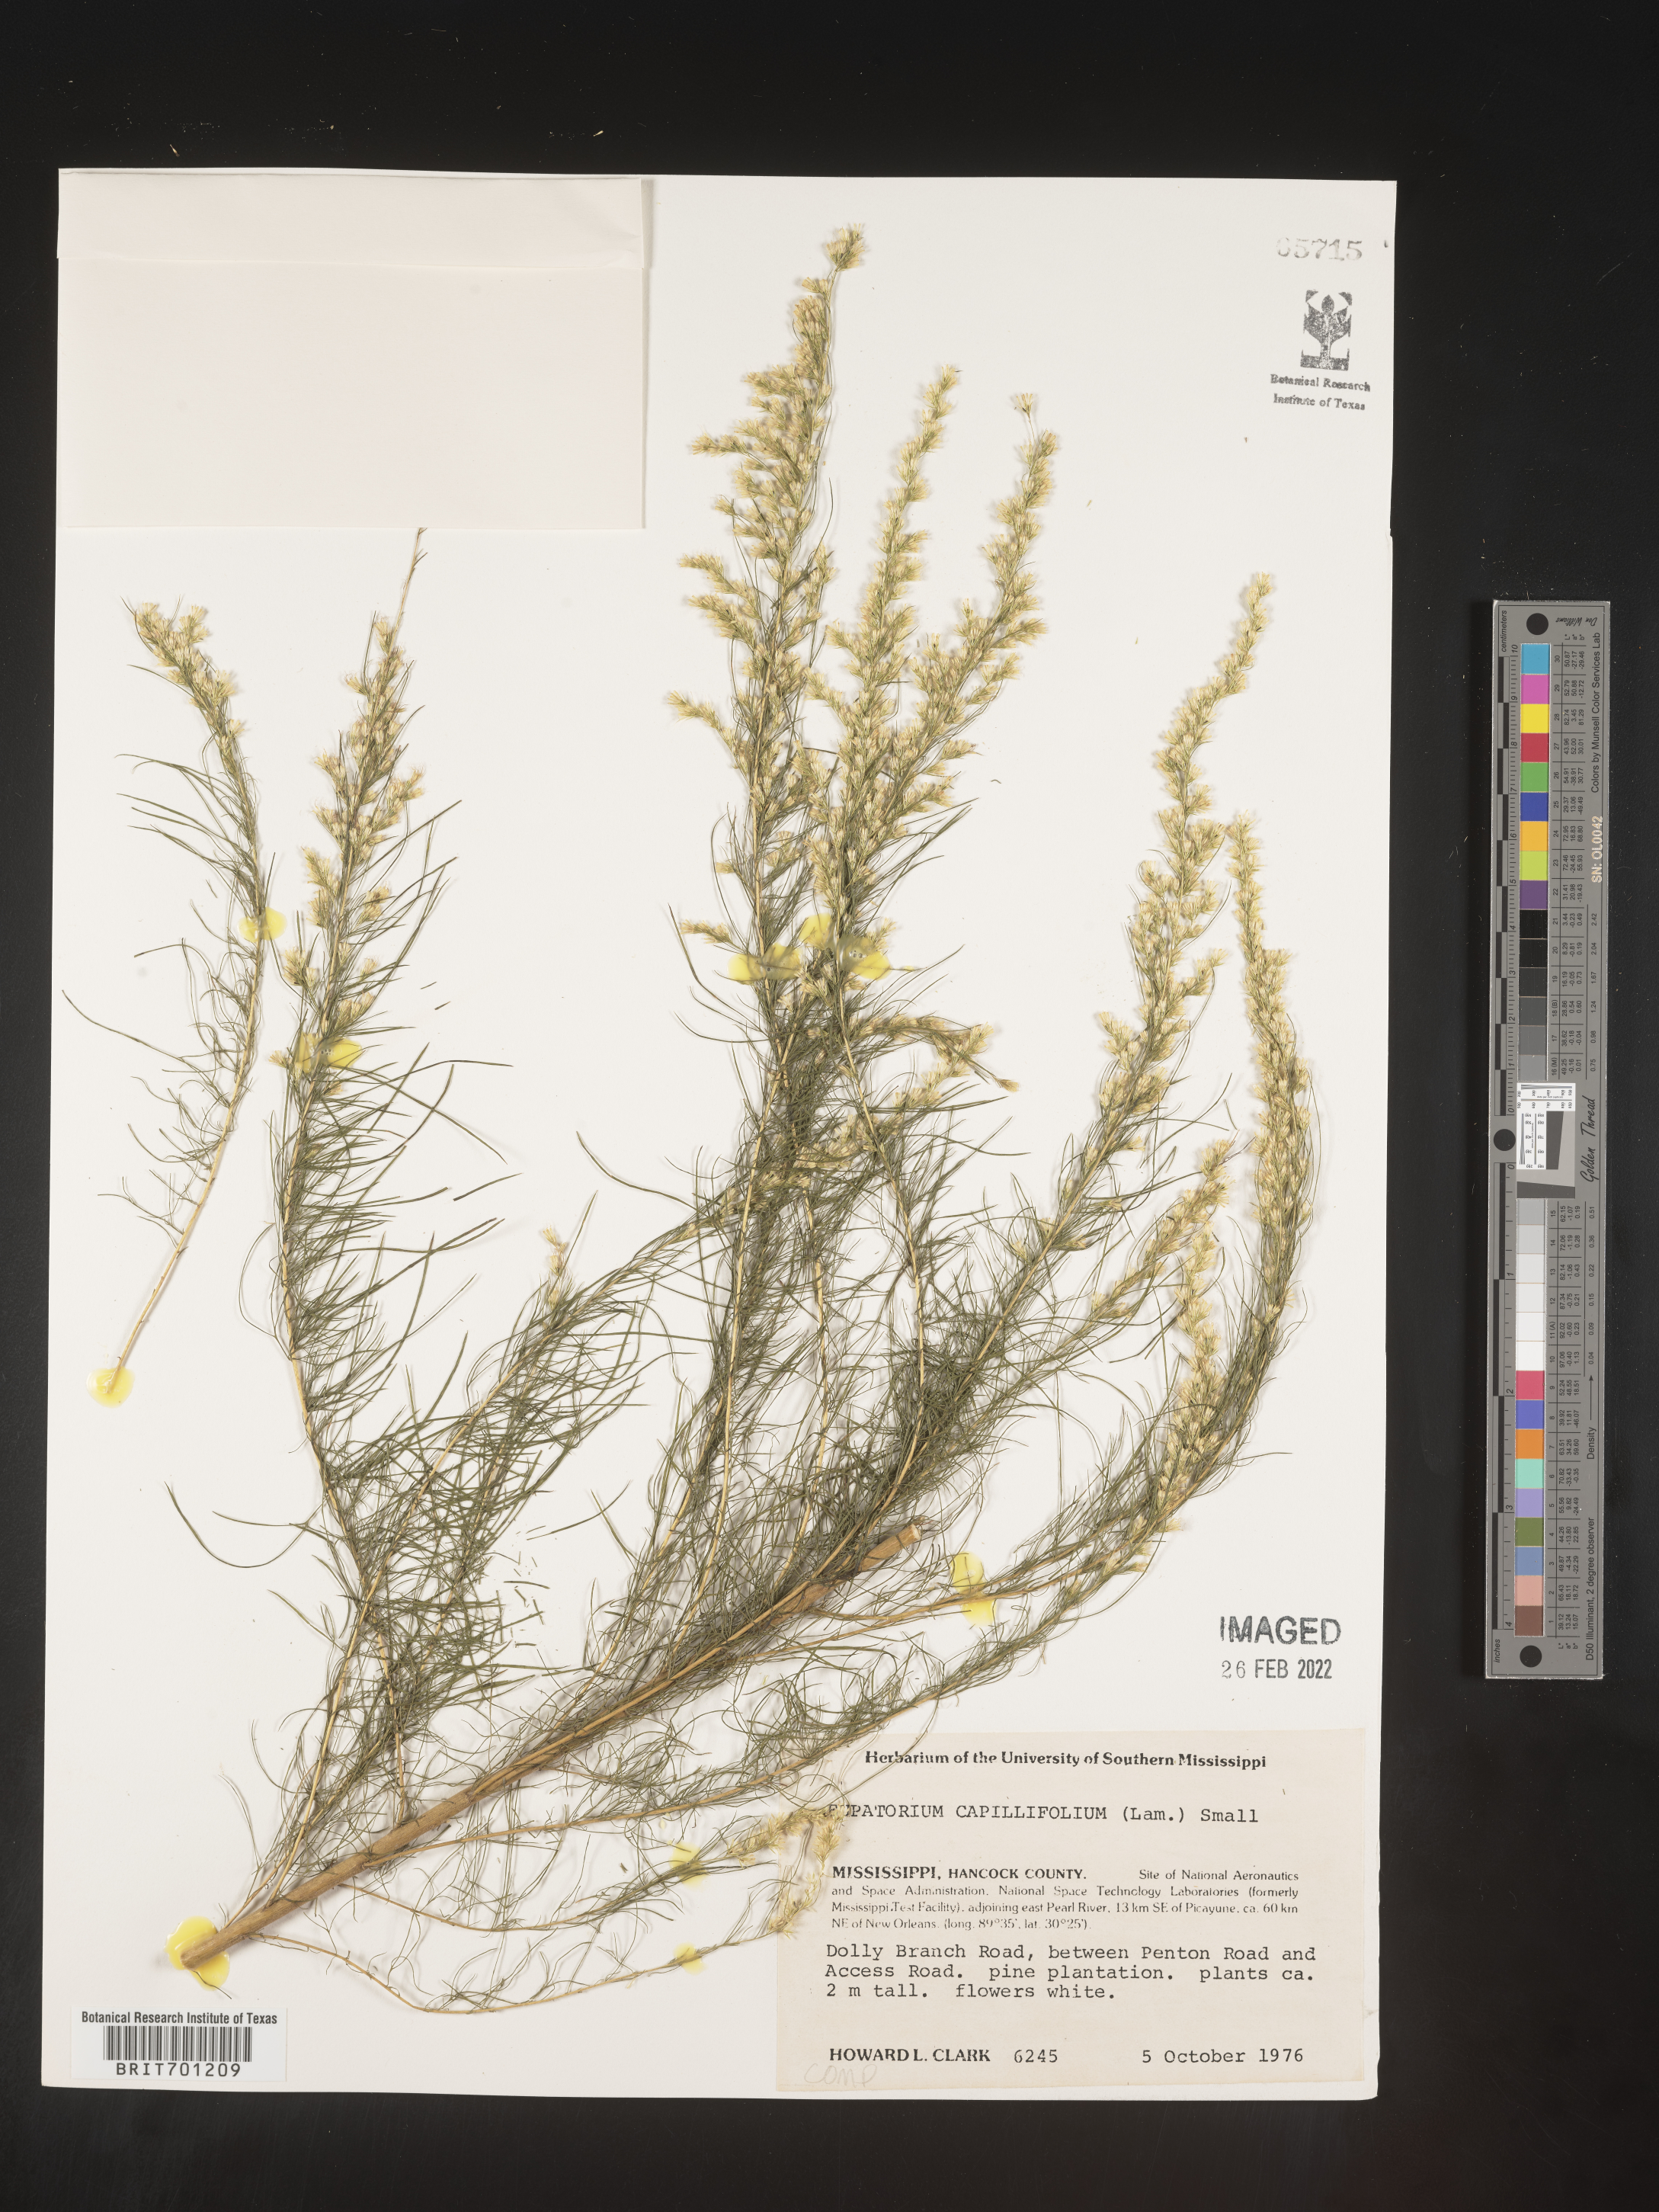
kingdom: Plantae
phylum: Tracheophyta
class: Magnoliopsida
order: Asterales
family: Asteraceae
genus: Eupatorium
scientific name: Eupatorium capillifolium
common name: Dog-fennel
